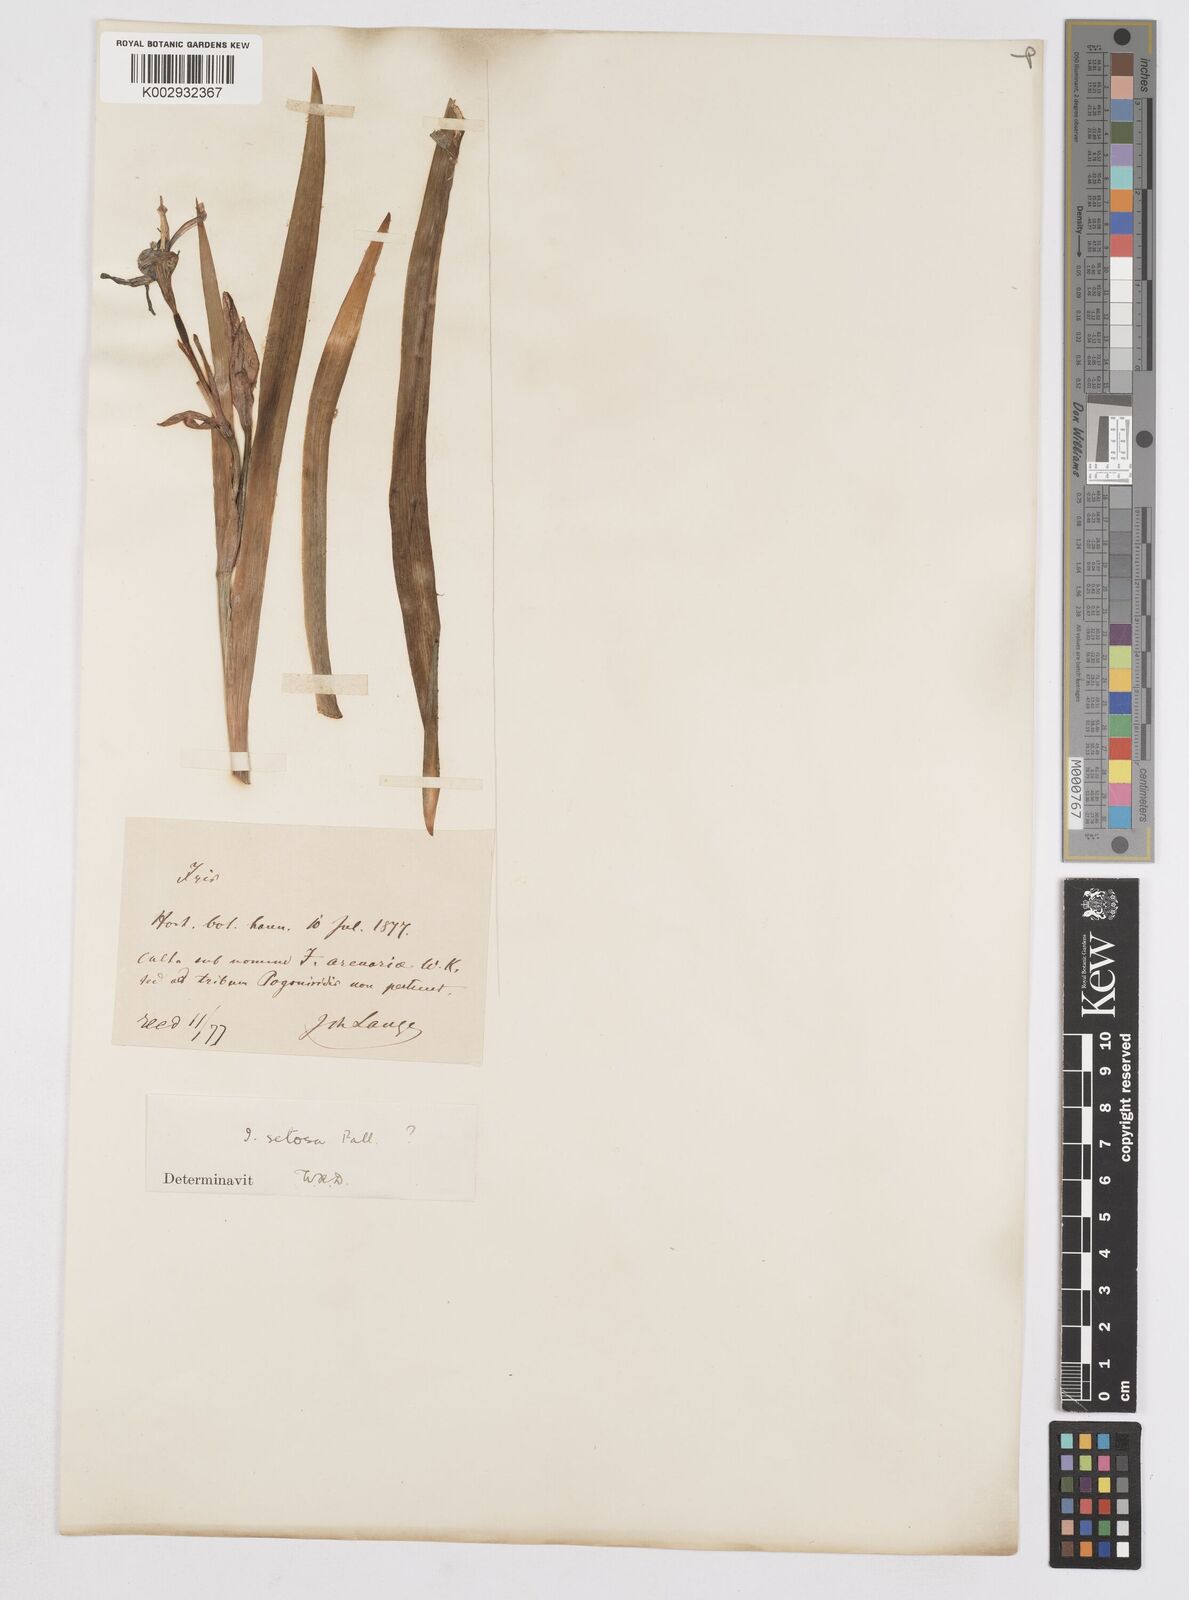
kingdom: Plantae
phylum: Tracheophyta
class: Liliopsida
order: Asparagales
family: Iridaceae
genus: Iris
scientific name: Iris setosa
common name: Arctic blue flag
